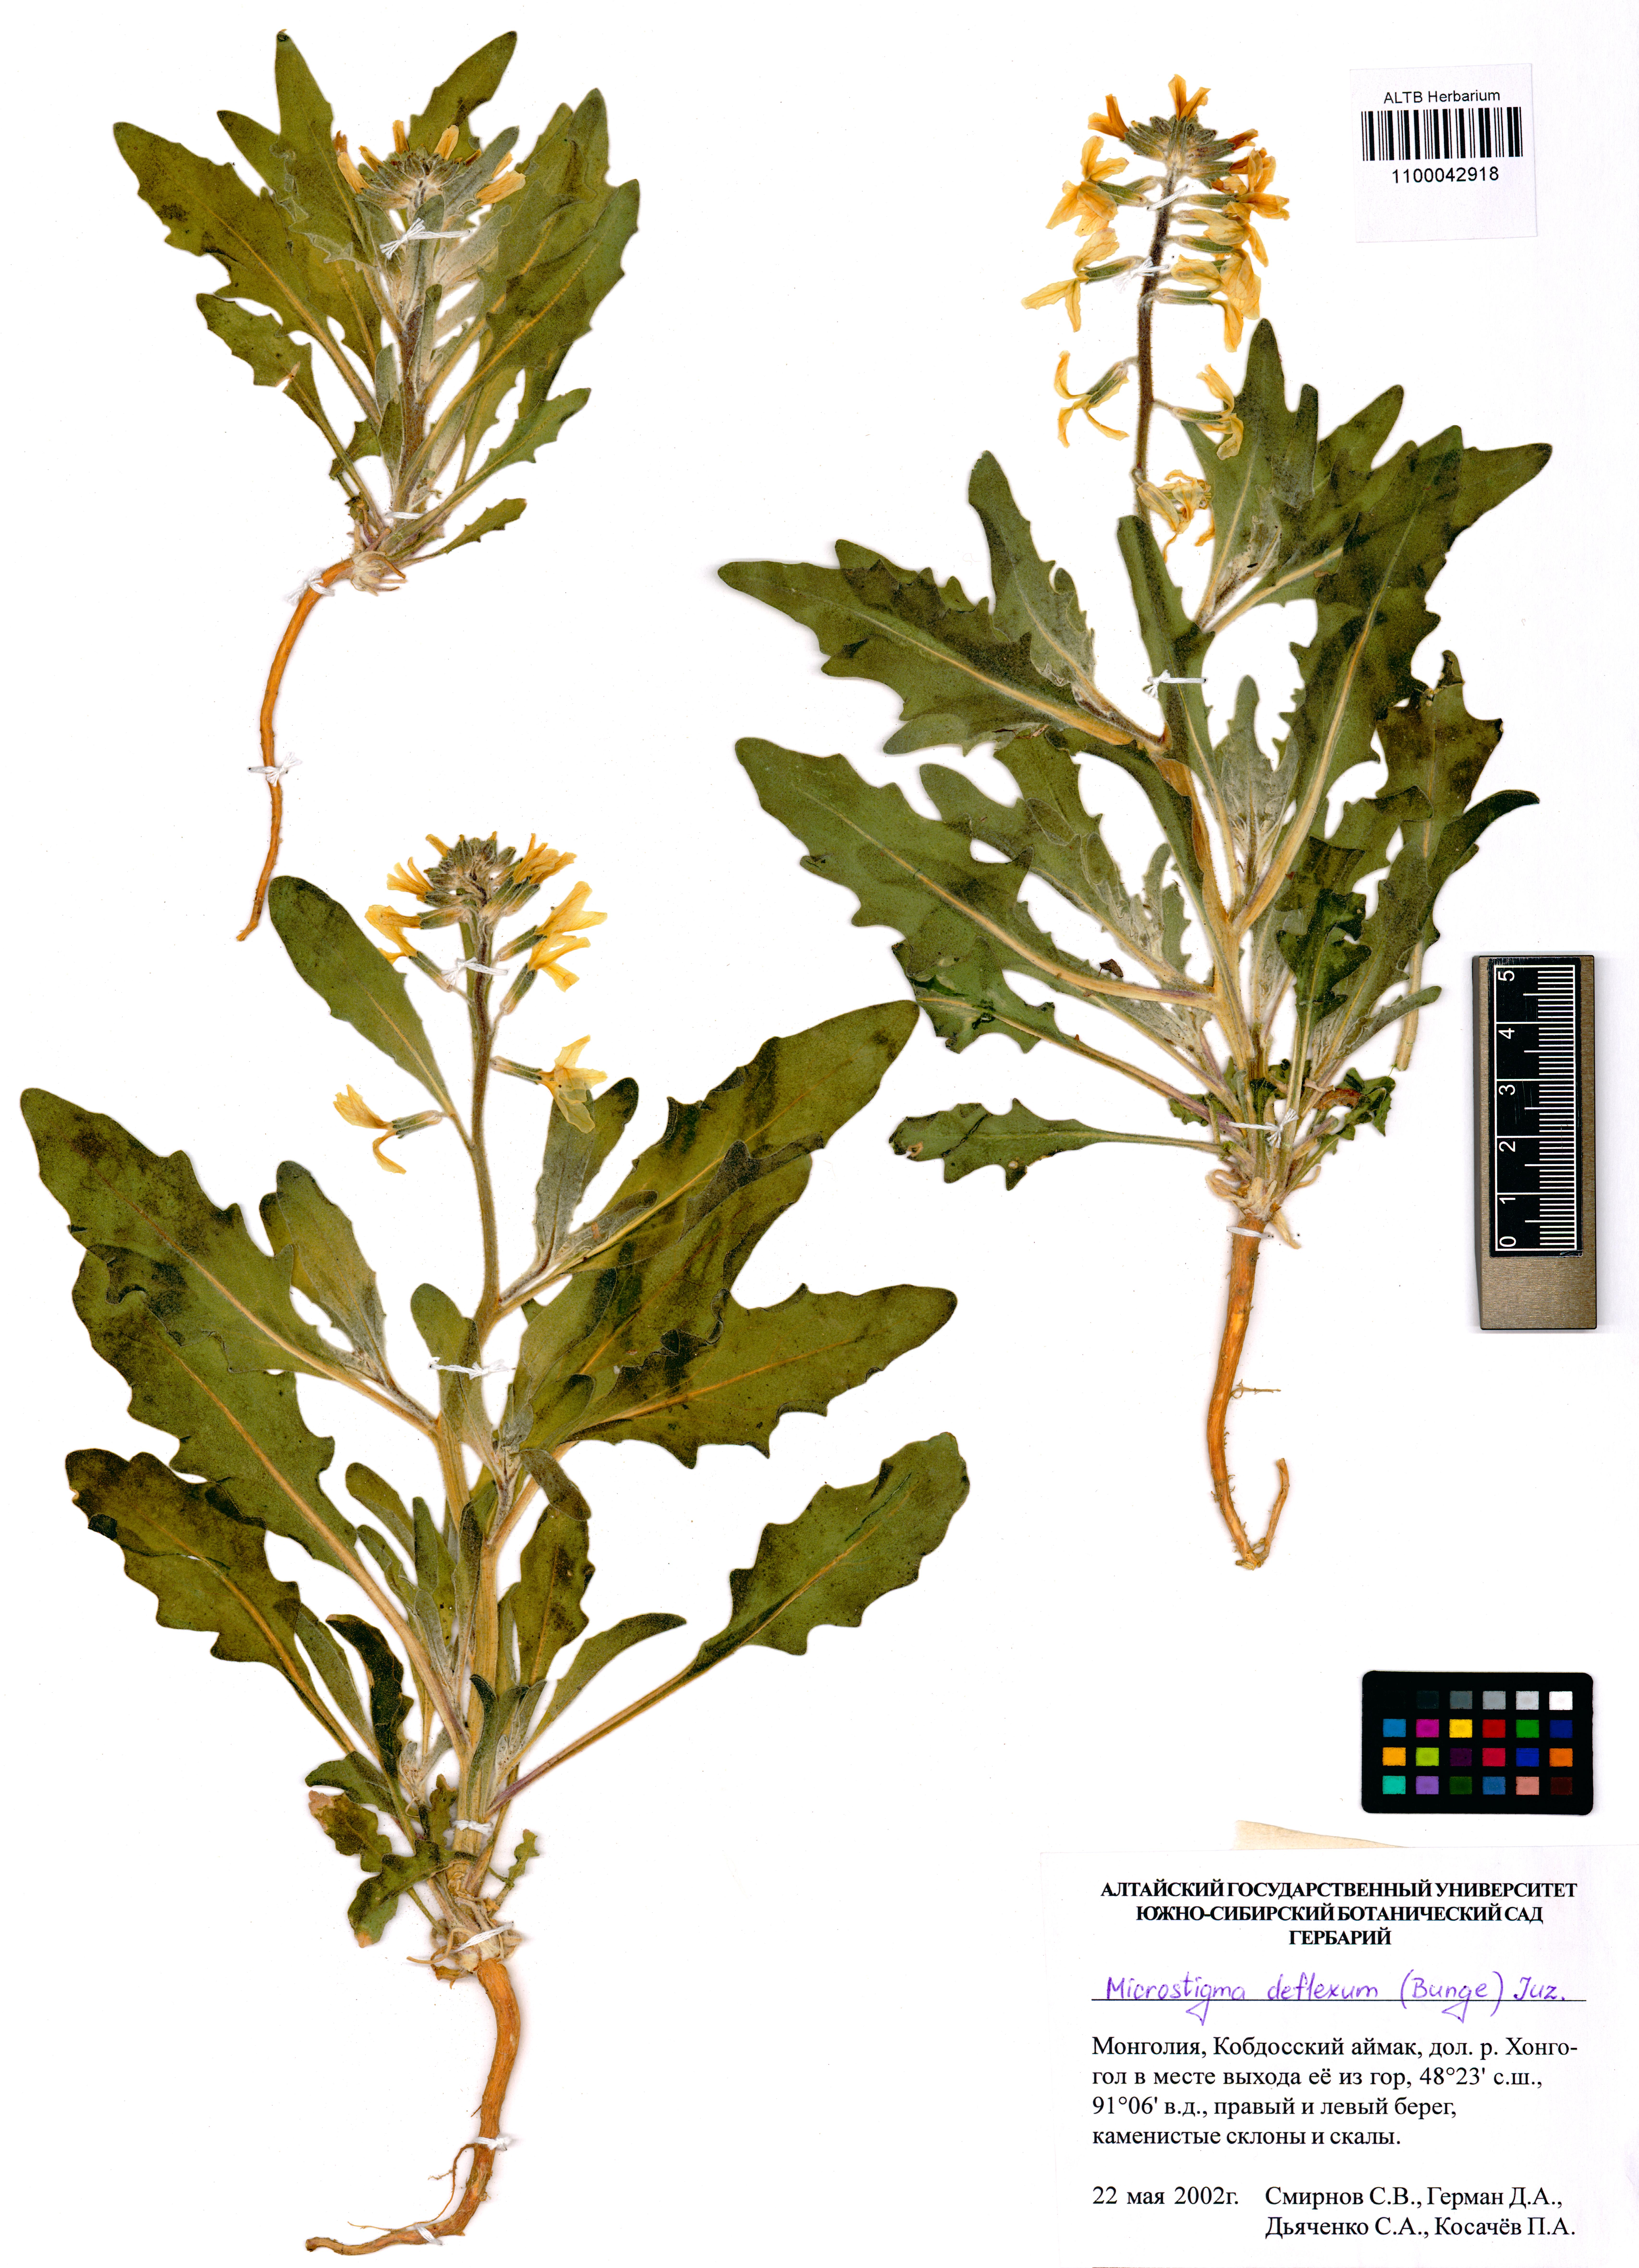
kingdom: Plantae
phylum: Tracheophyta
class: Magnoliopsida
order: Brassicales
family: Brassicaceae
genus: Microstigma
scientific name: Microstigma deflexum
